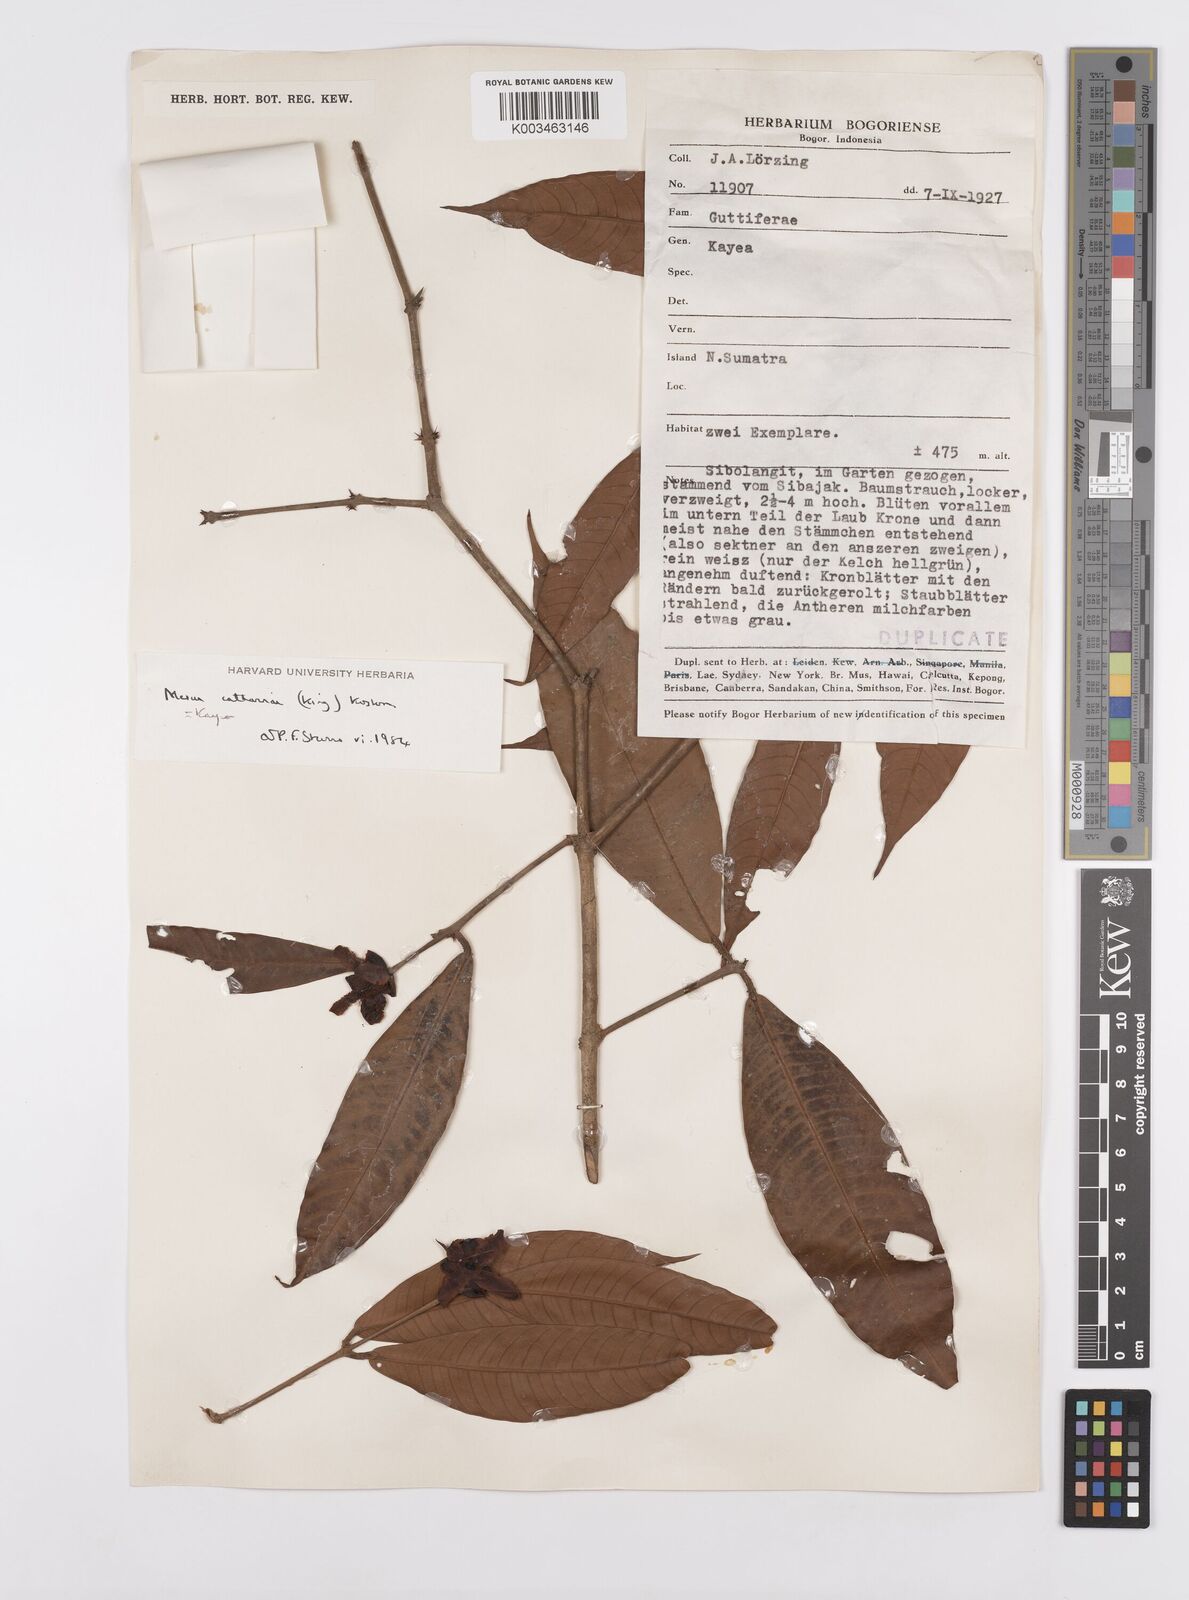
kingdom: Plantae
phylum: Tracheophyta
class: Magnoliopsida
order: Malpighiales
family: Calophyllaceae
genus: Kayea
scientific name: Kayea catharinae
